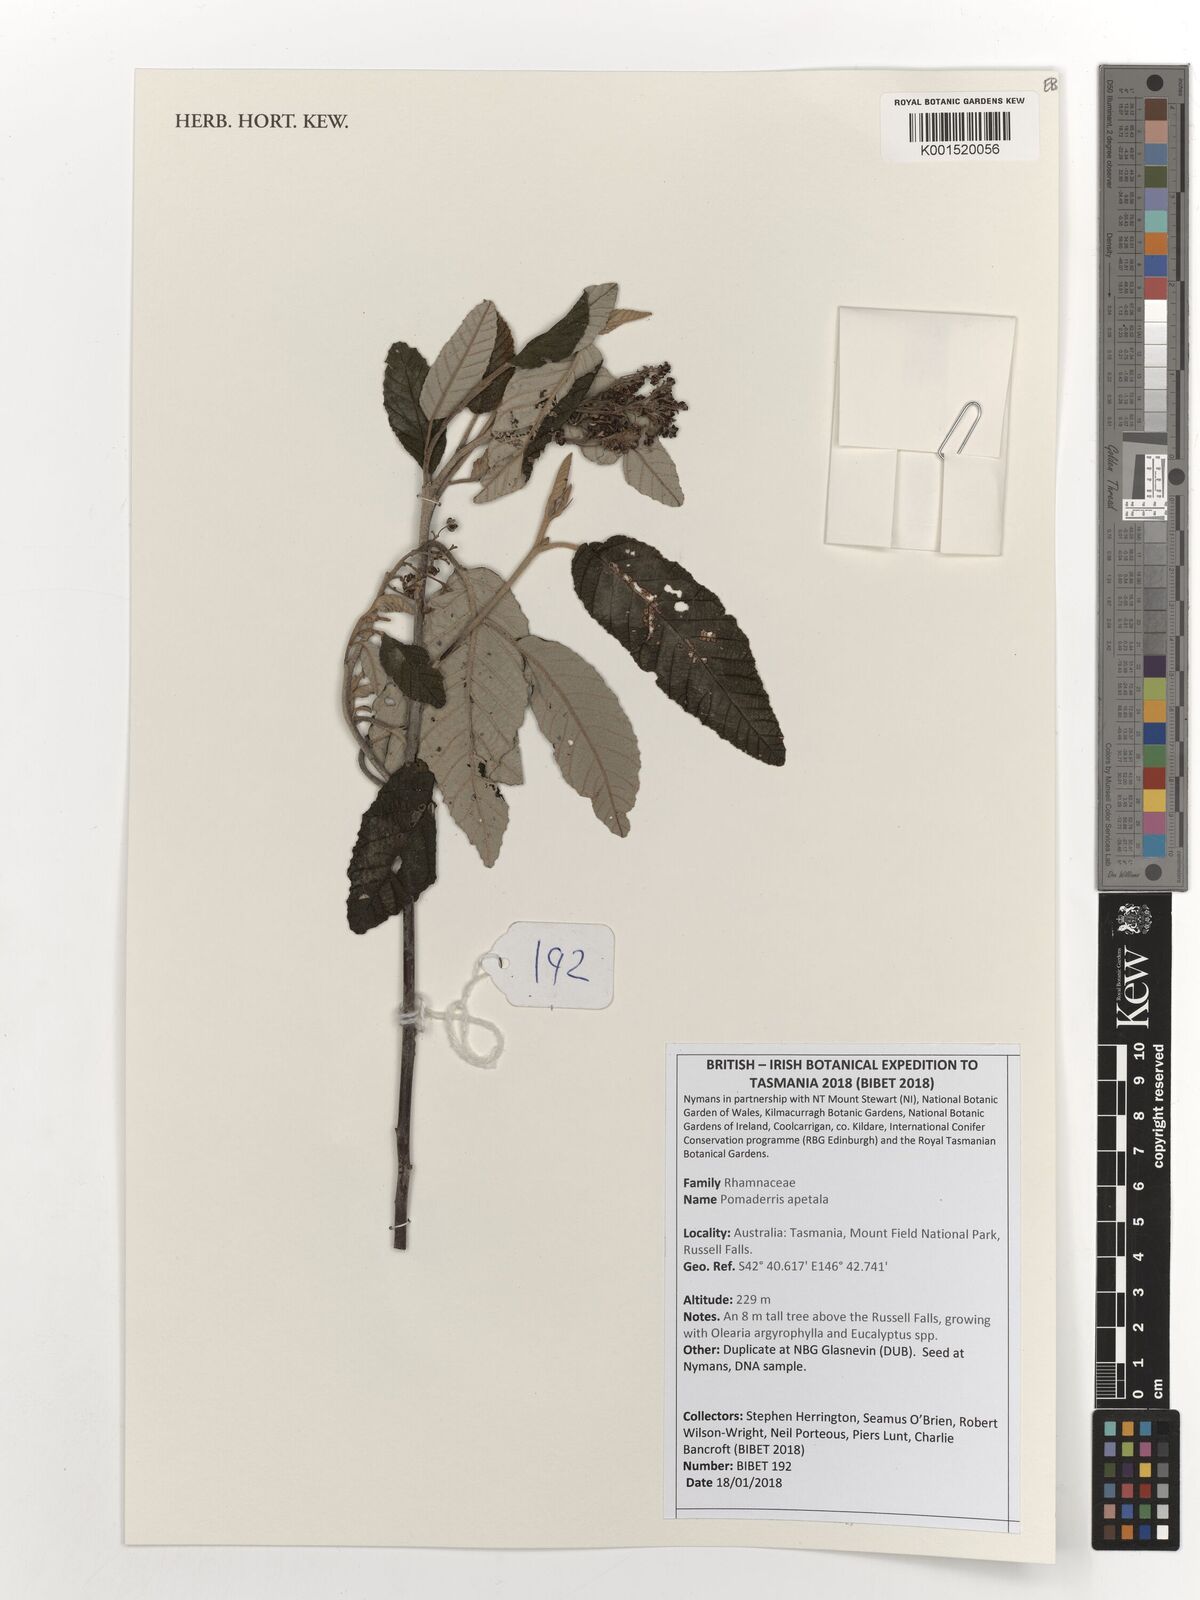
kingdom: Plantae
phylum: Tracheophyta
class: Magnoliopsida
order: Rosales
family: Rhamnaceae
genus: Pomaderris
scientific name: Pomaderris apetala
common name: Hazel pomaderris
